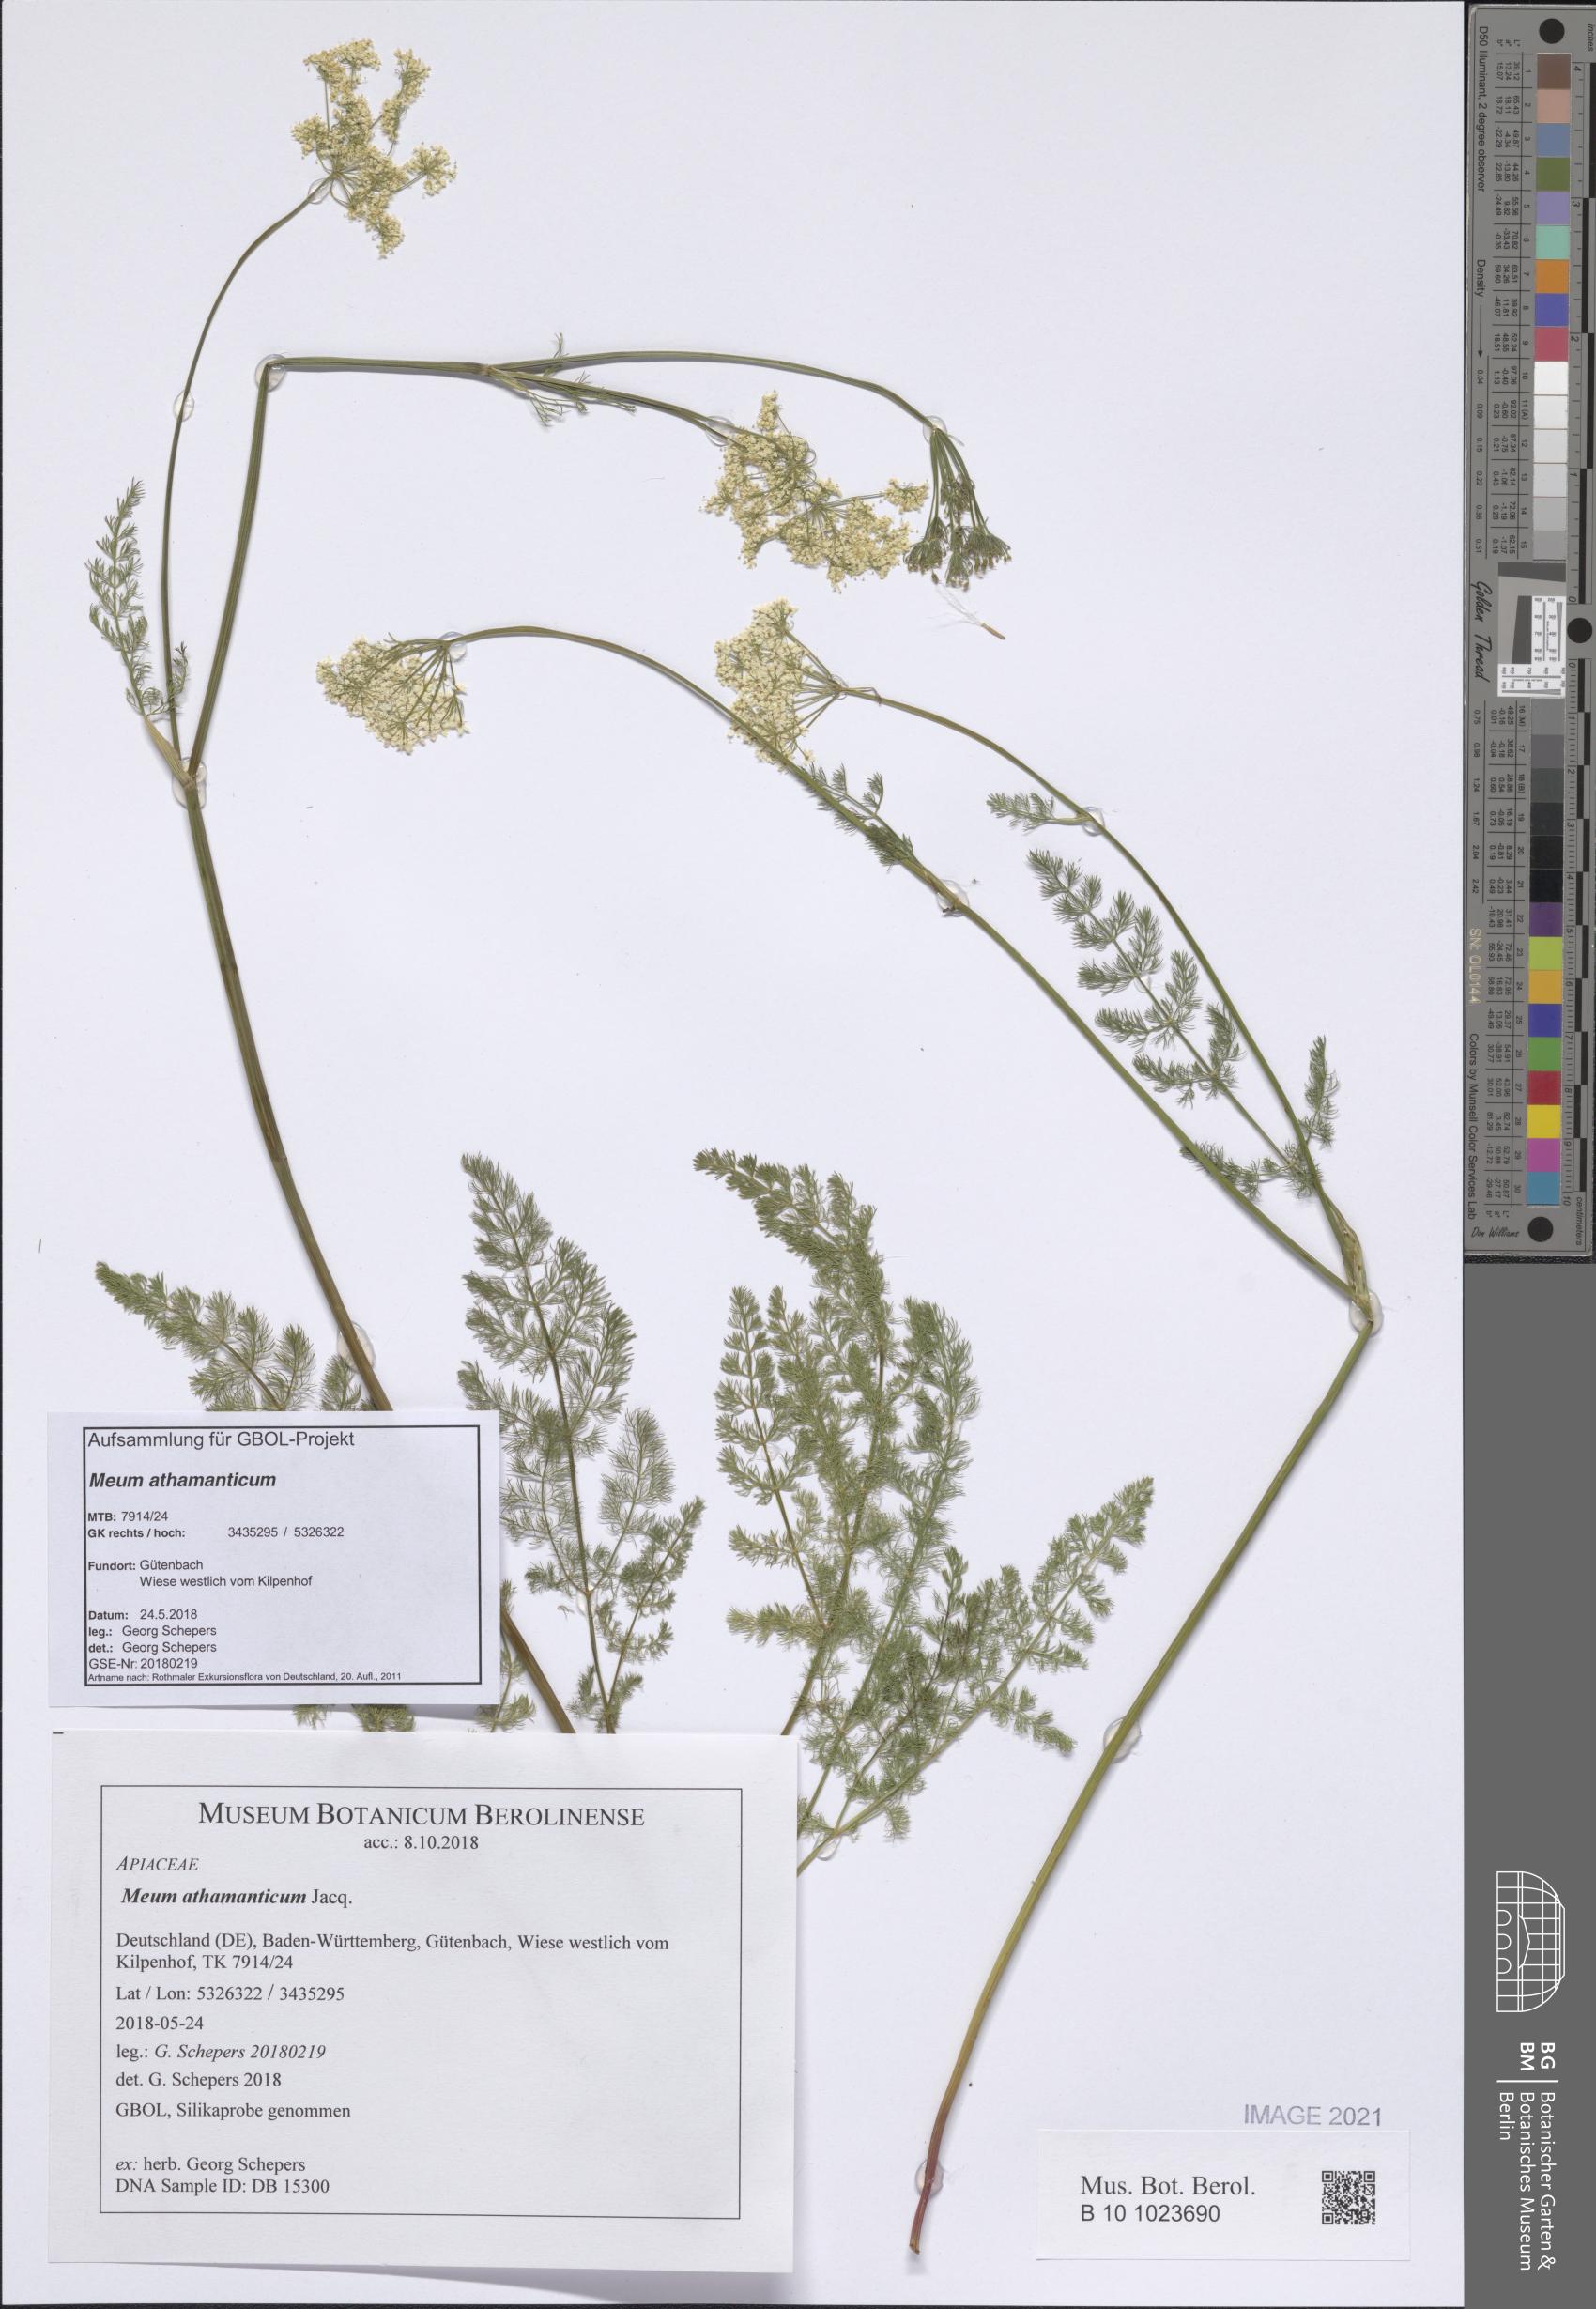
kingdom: Plantae
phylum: Tracheophyta
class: Magnoliopsida
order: Apiales
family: Apiaceae
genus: Meum
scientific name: Meum athamanticum
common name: Spignel
